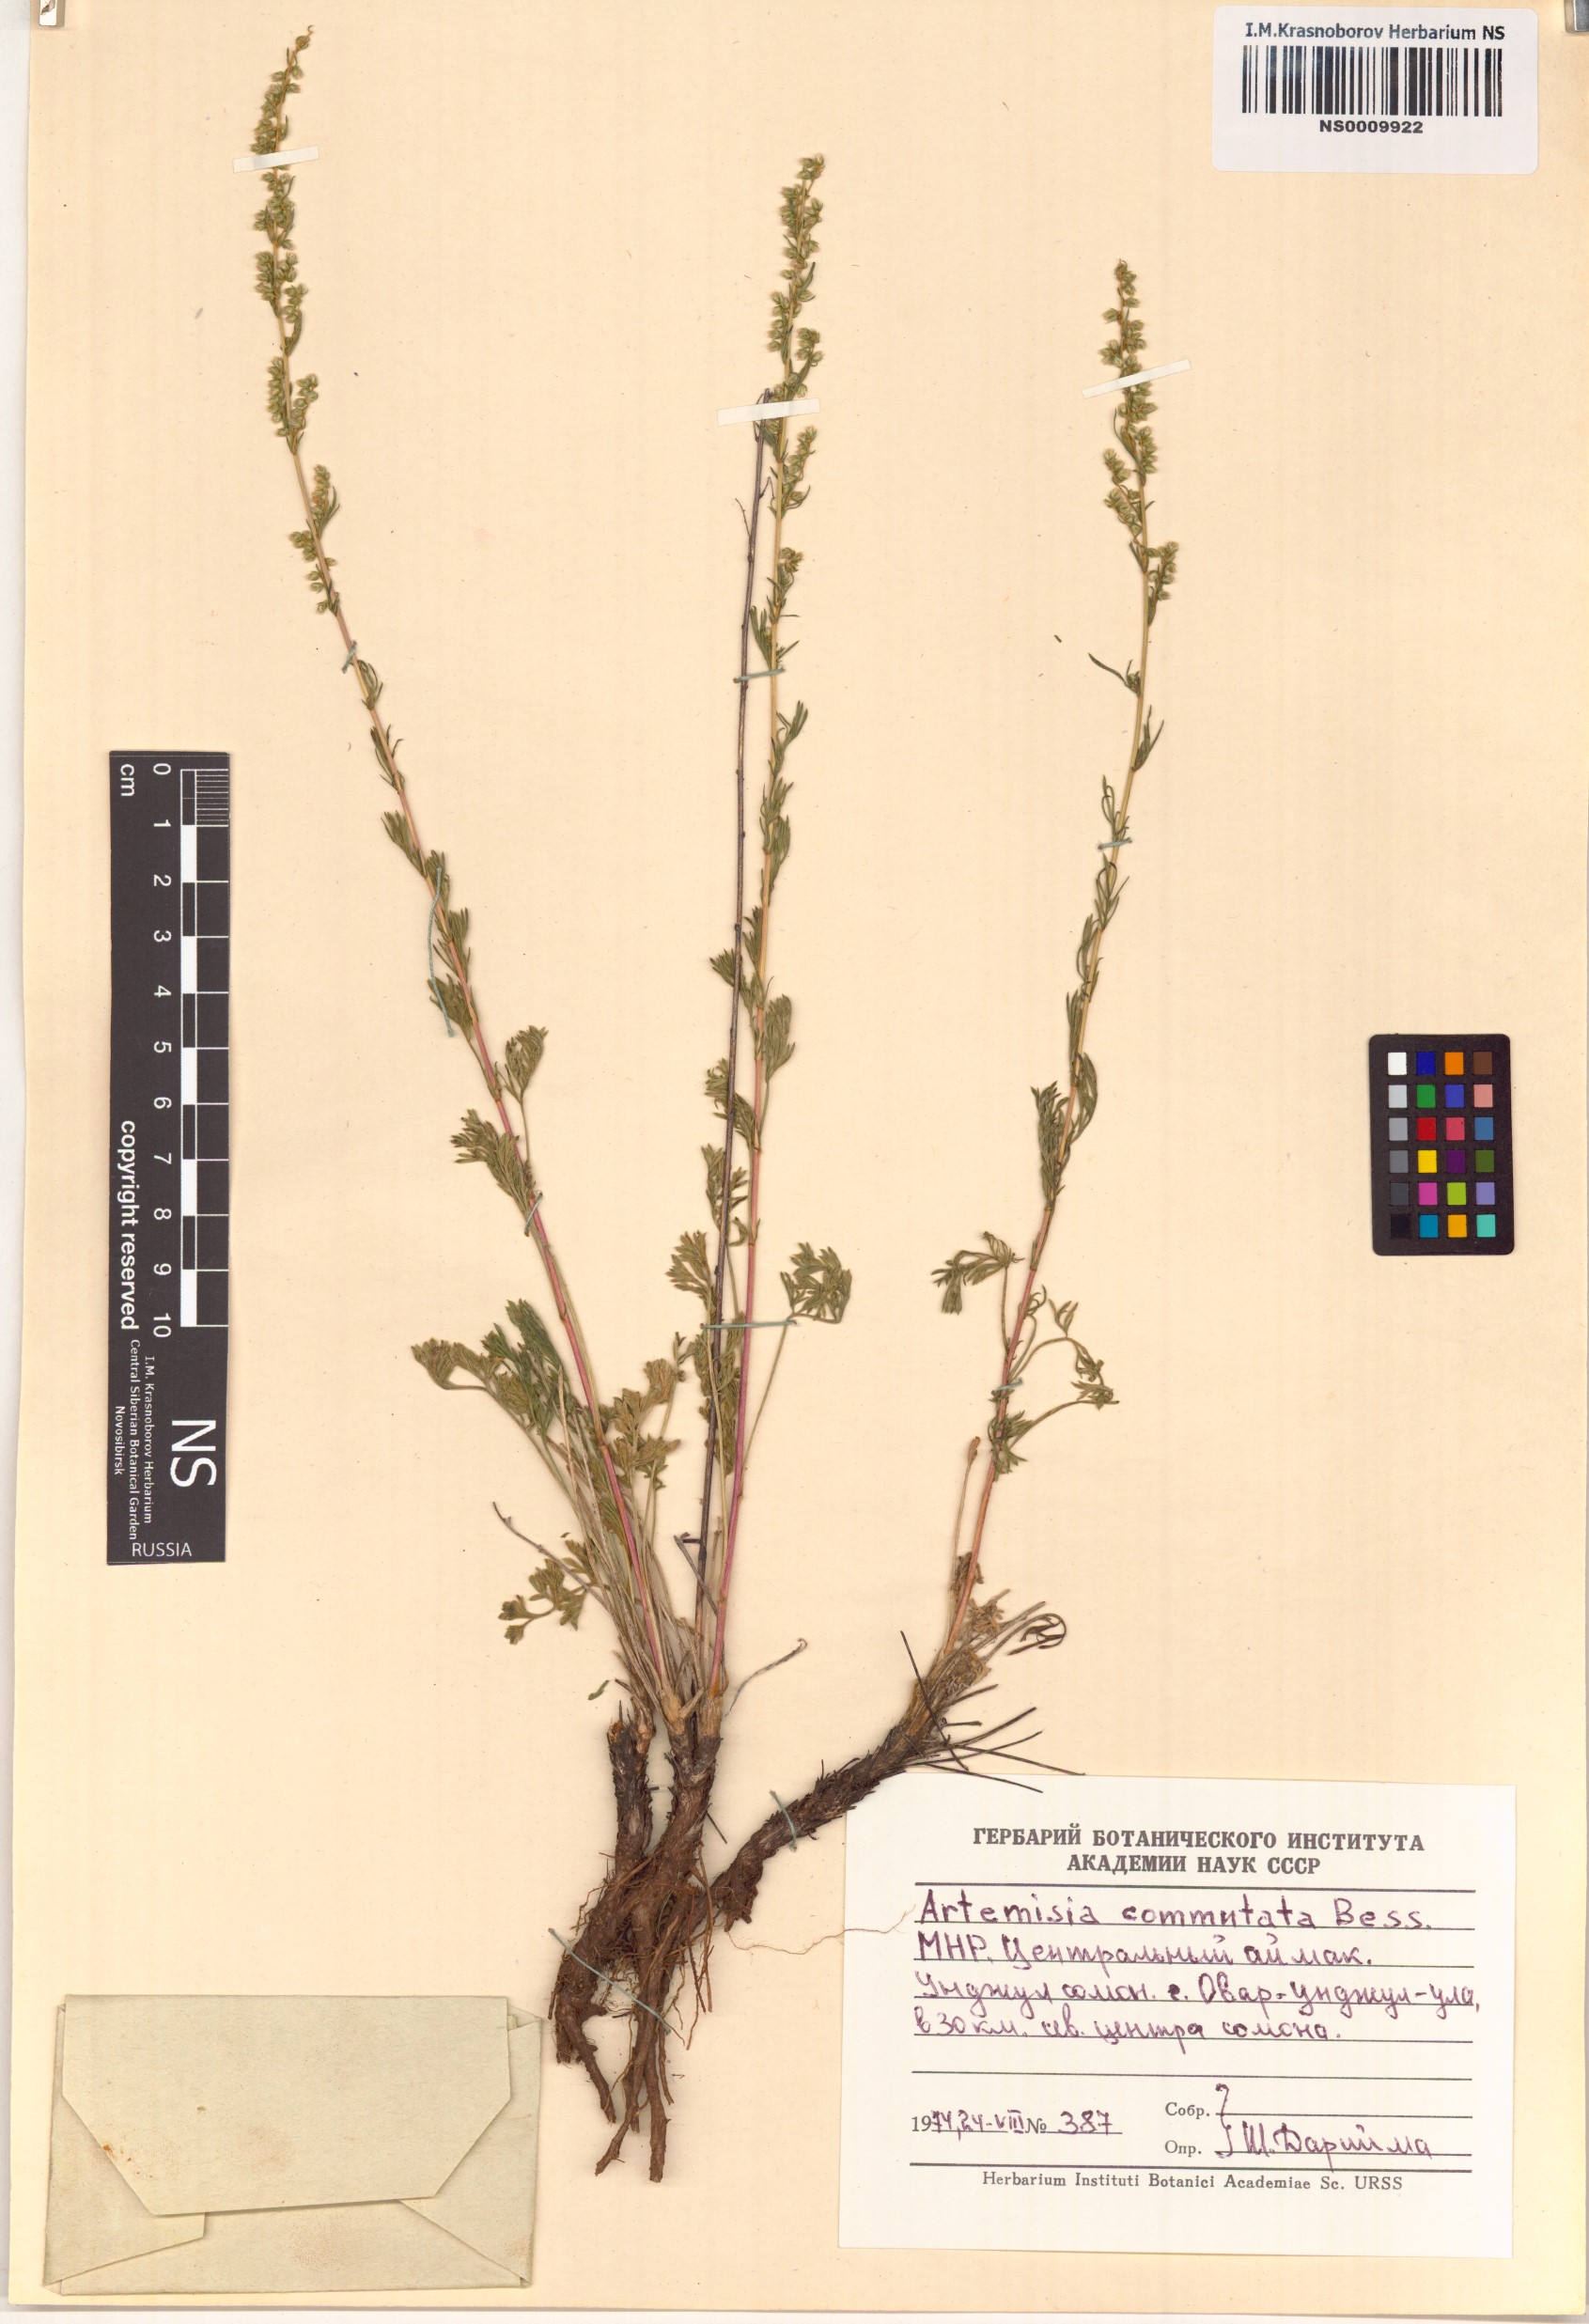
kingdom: Plantae
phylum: Tracheophyta
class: Magnoliopsida
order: Asterales
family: Asteraceae
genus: Artemisia
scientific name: Artemisia pubescens
